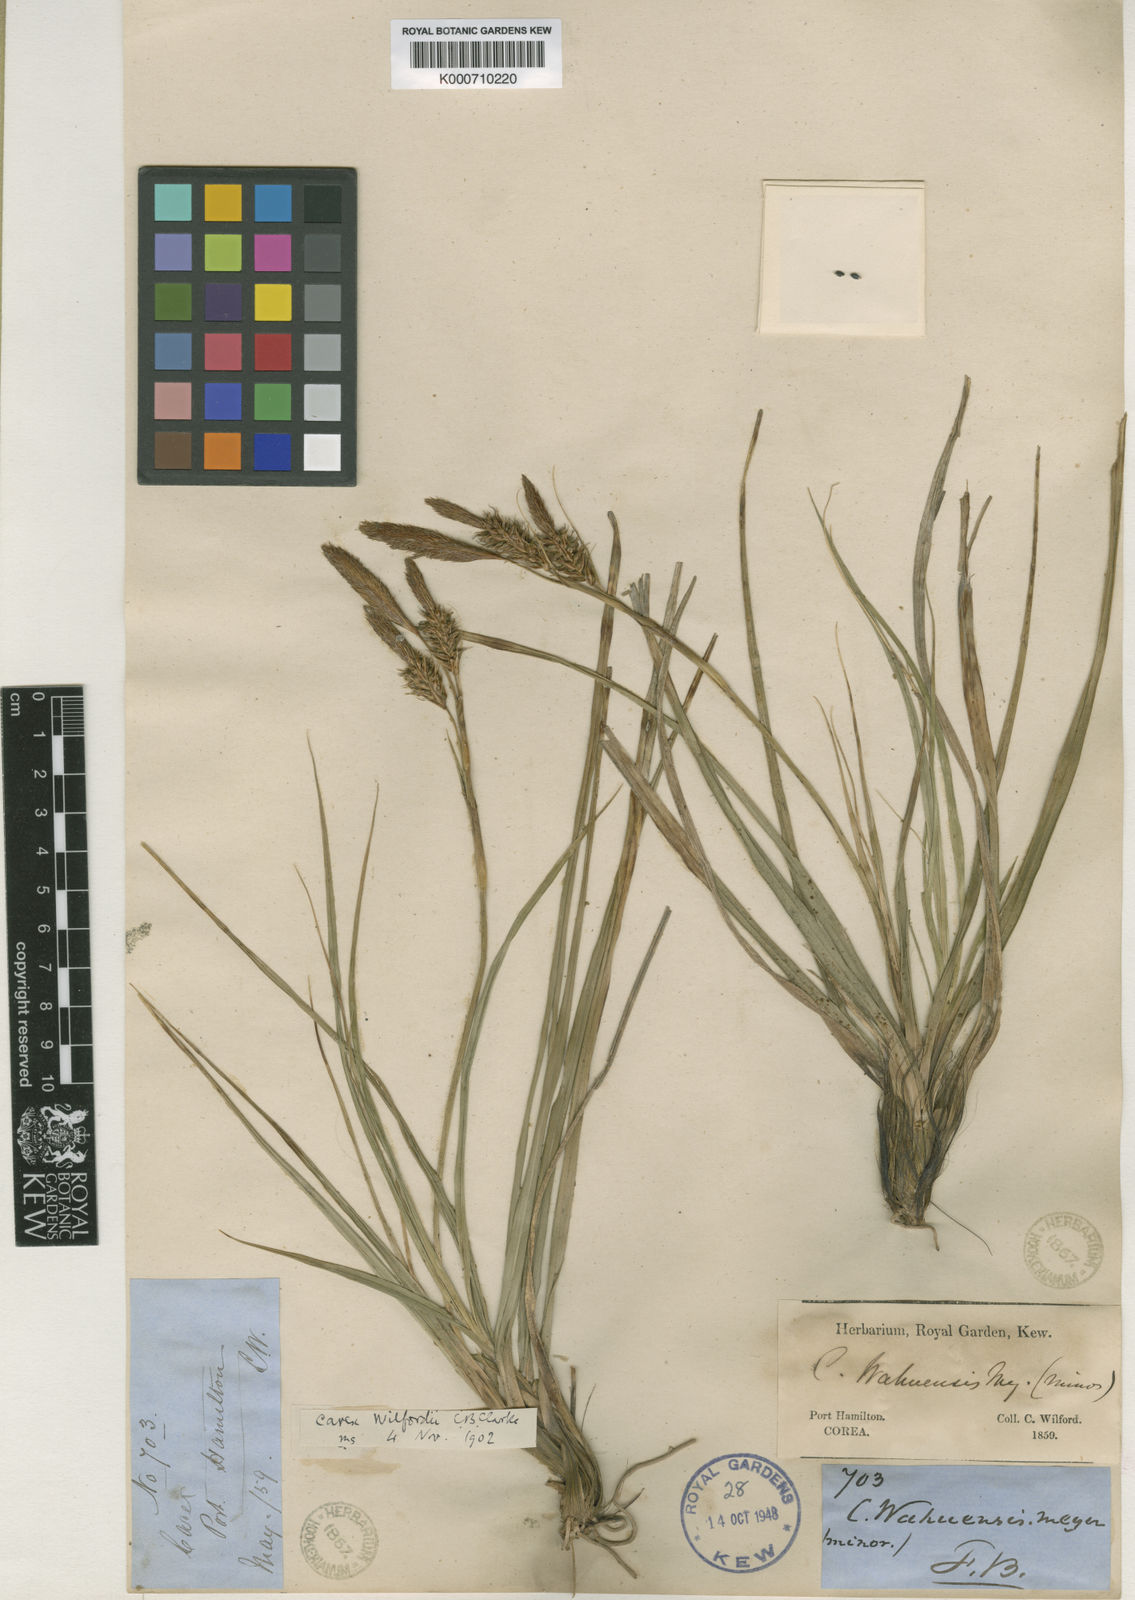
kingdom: Plantae
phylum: Tracheophyta
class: Liliopsida
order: Poales
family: Cyperaceae
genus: Carex
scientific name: Carex wahuensis
